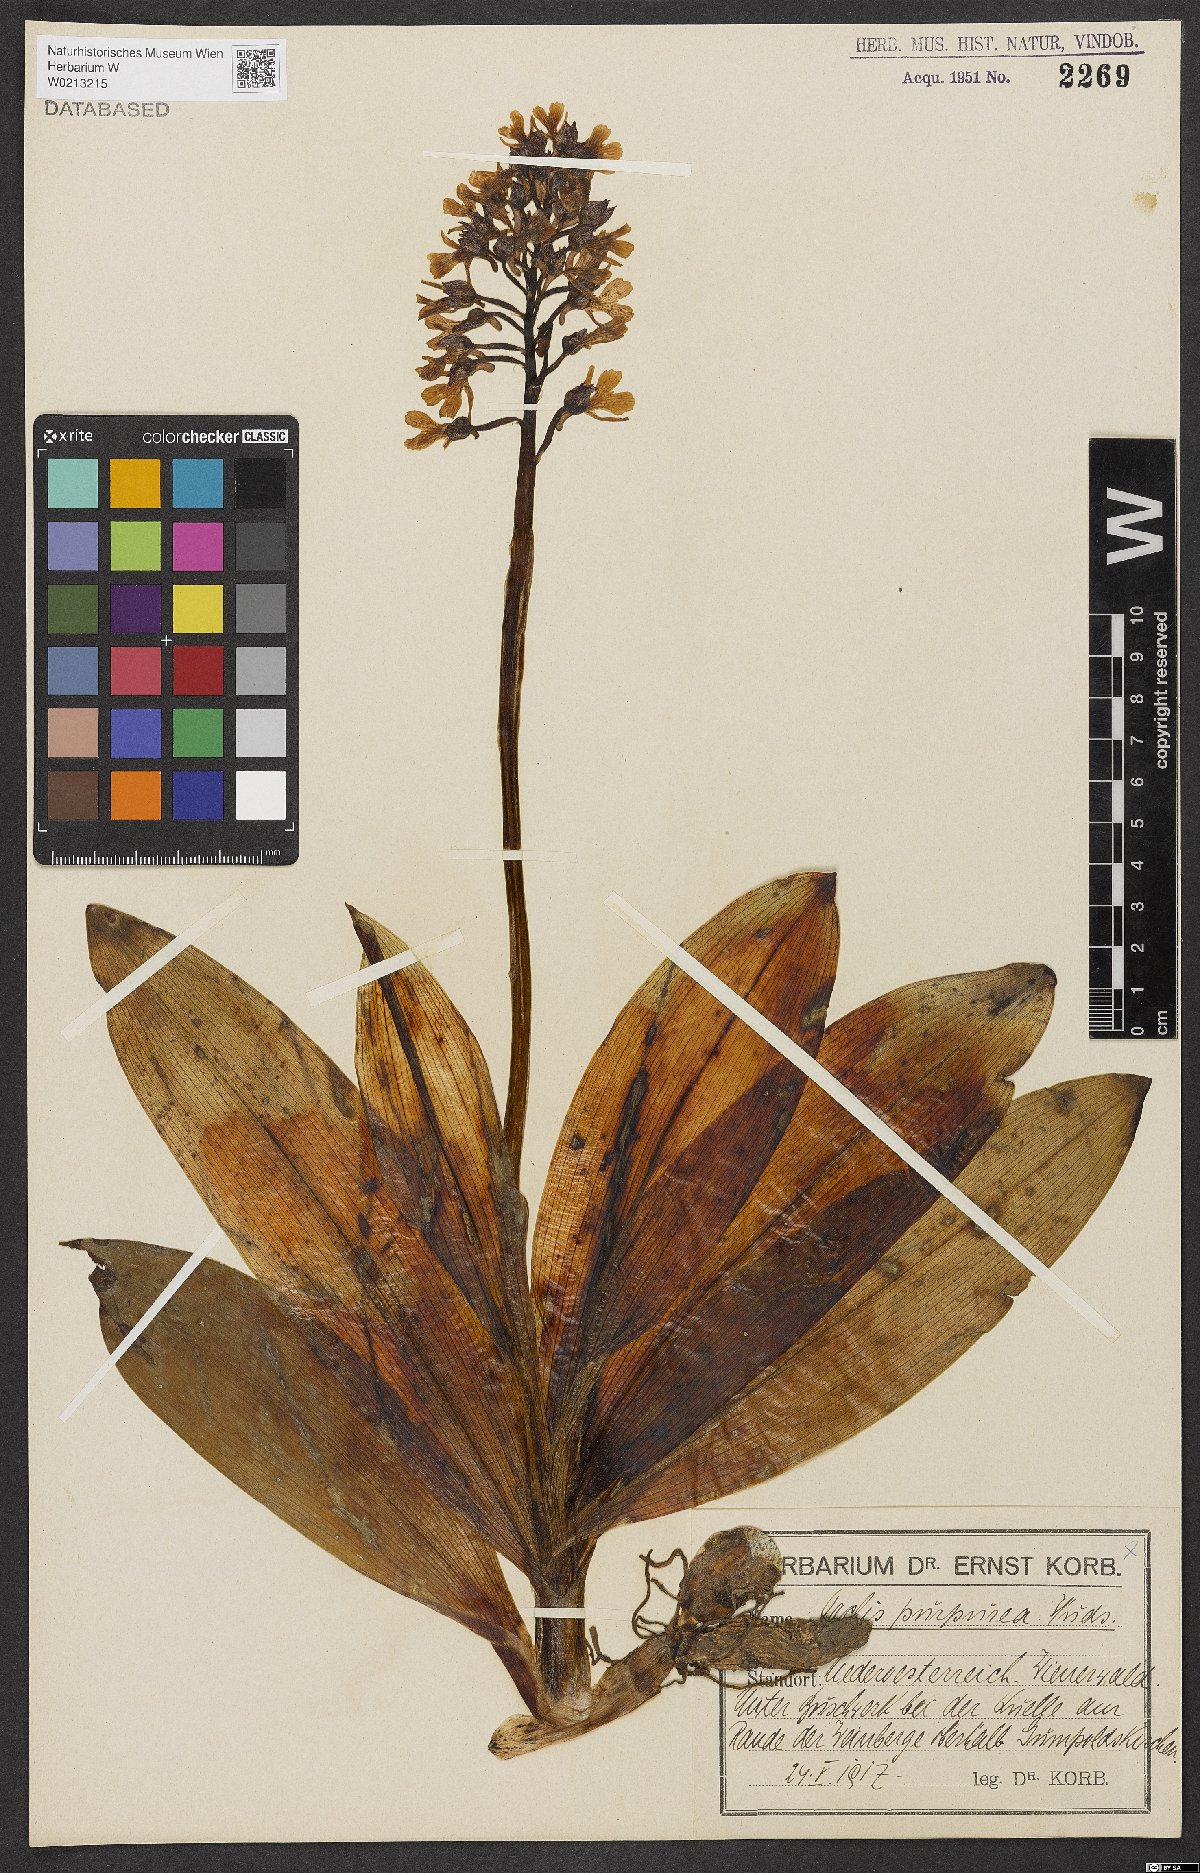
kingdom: Plantae
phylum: Tracheophyta
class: Liliopsida
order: Asparagales
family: Orchidaceae
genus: Orchis
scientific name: Orchis purpurea
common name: Lady orchid
